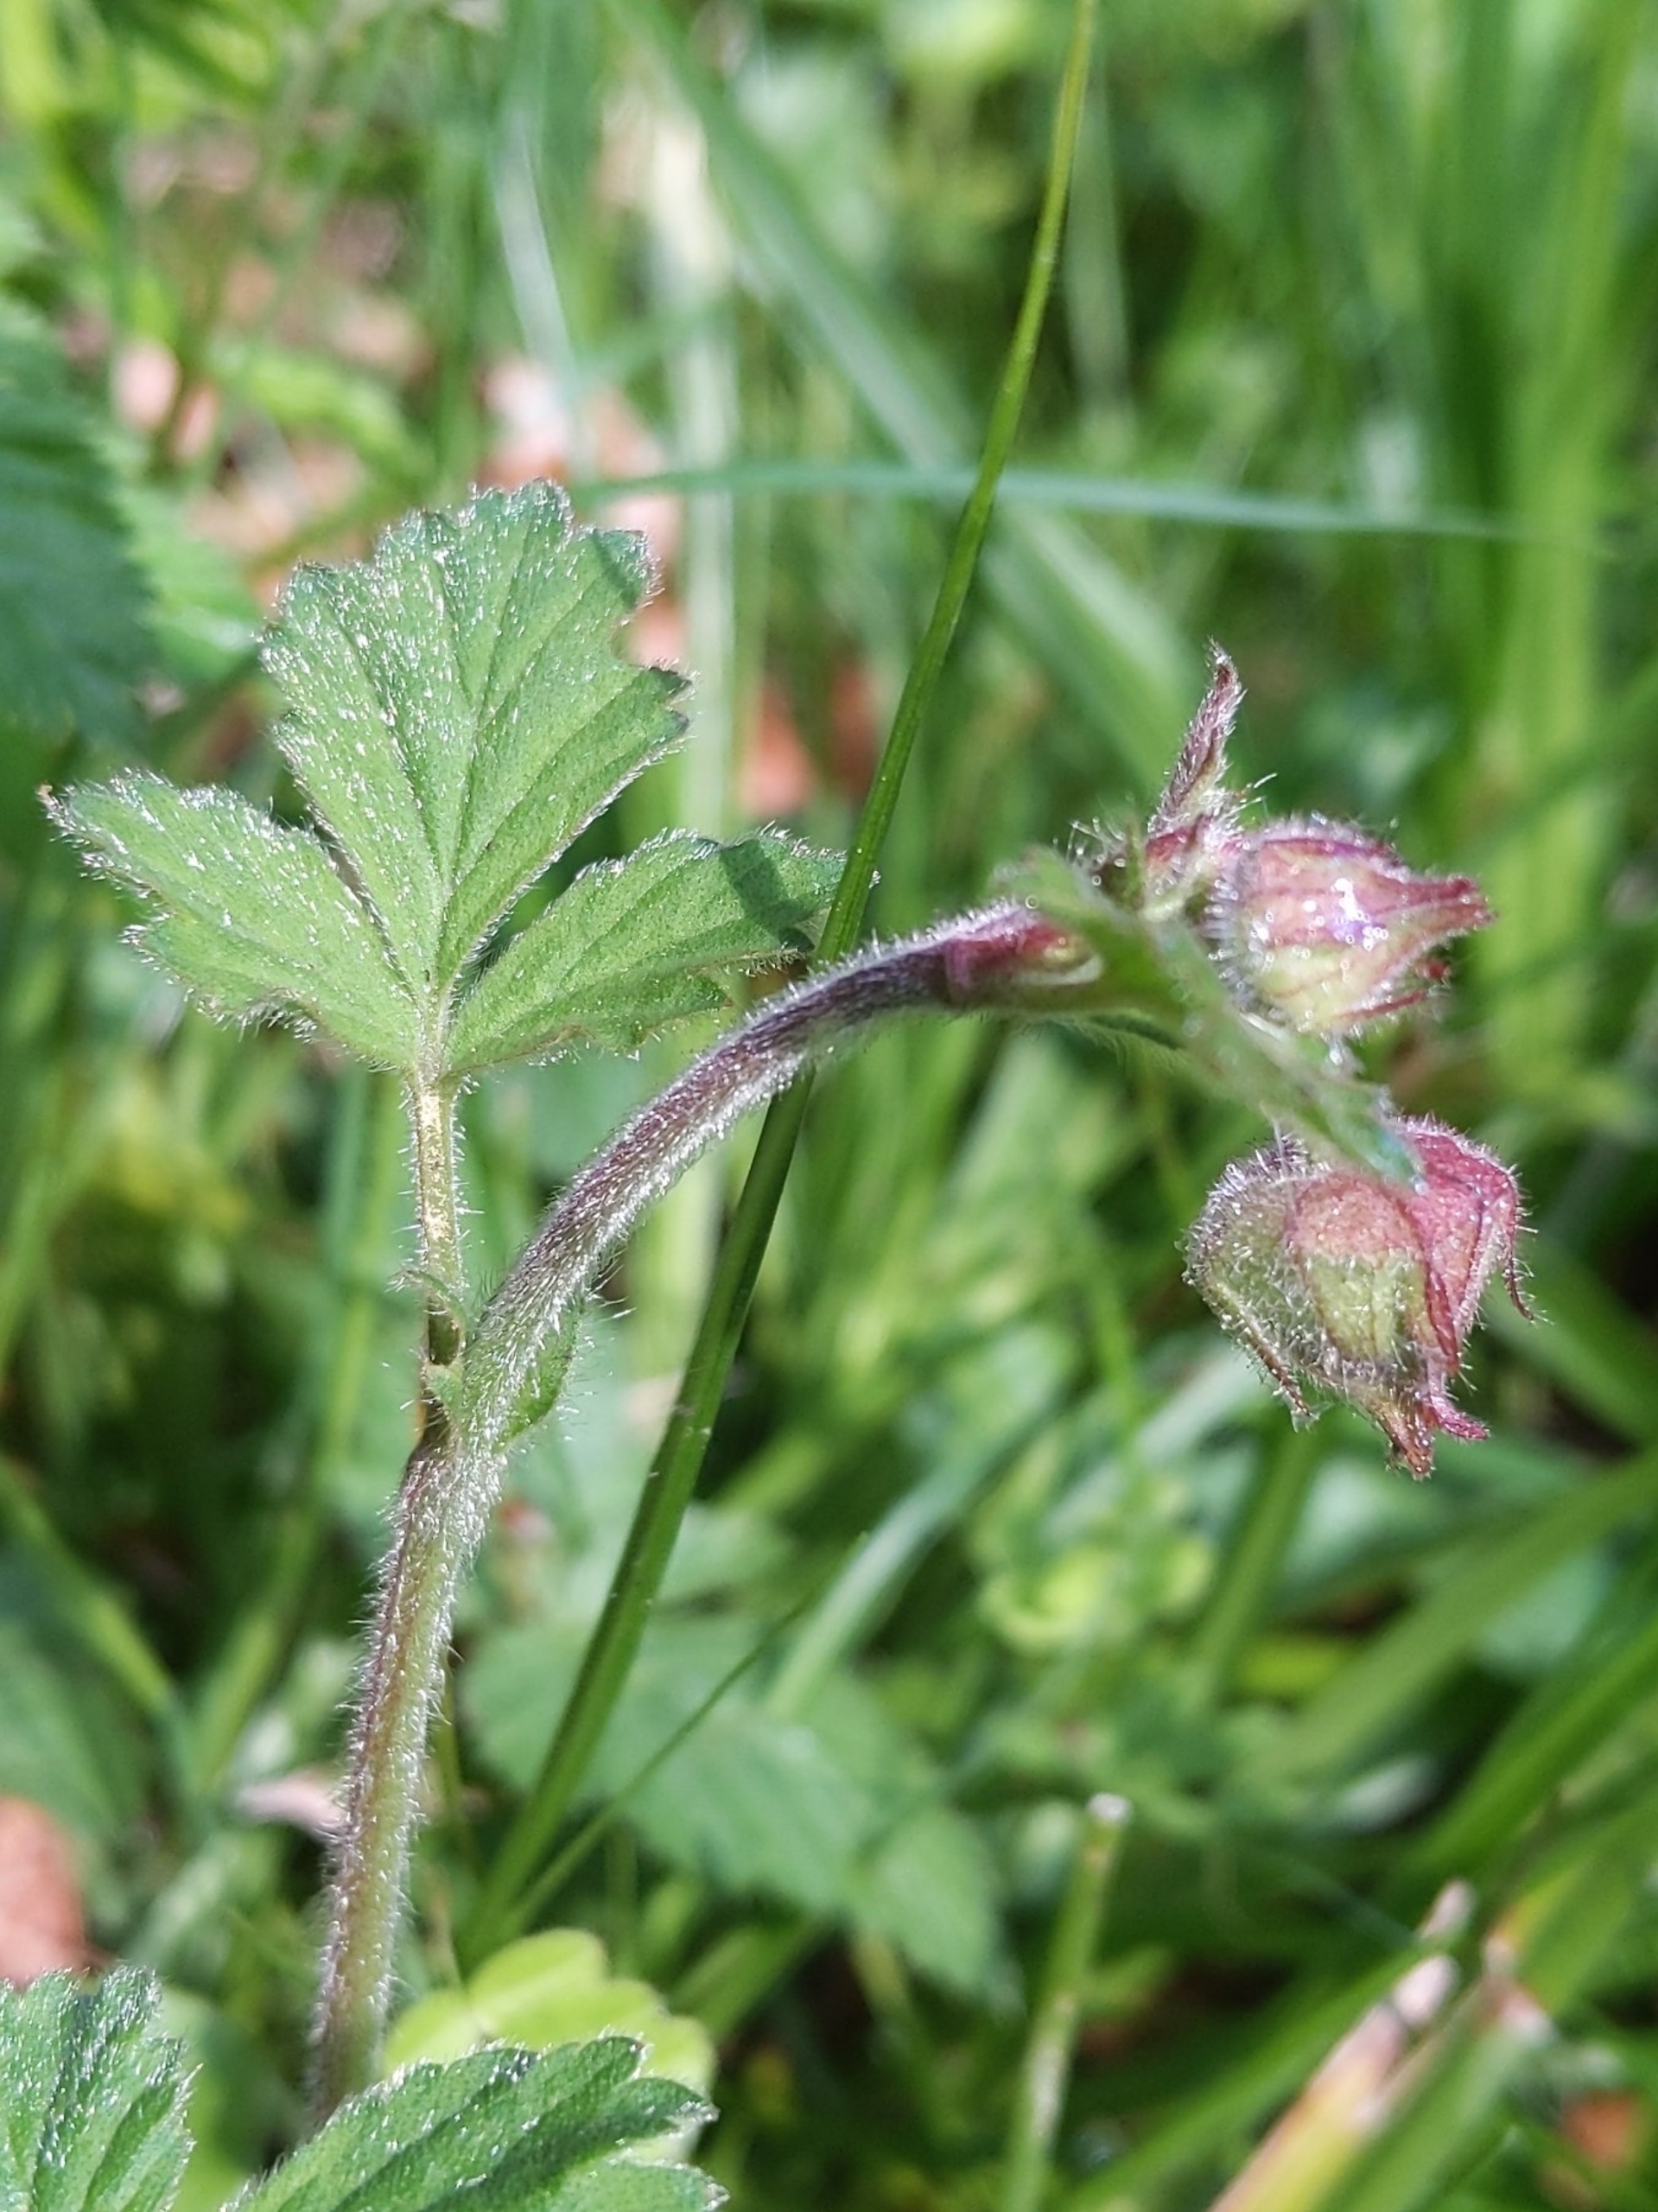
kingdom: Plantae
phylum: Tracheophyta
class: Magnoliopsida
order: Rosales
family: Rosaceae
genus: Geum
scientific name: Geum rivale
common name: Eng-nellikerod
